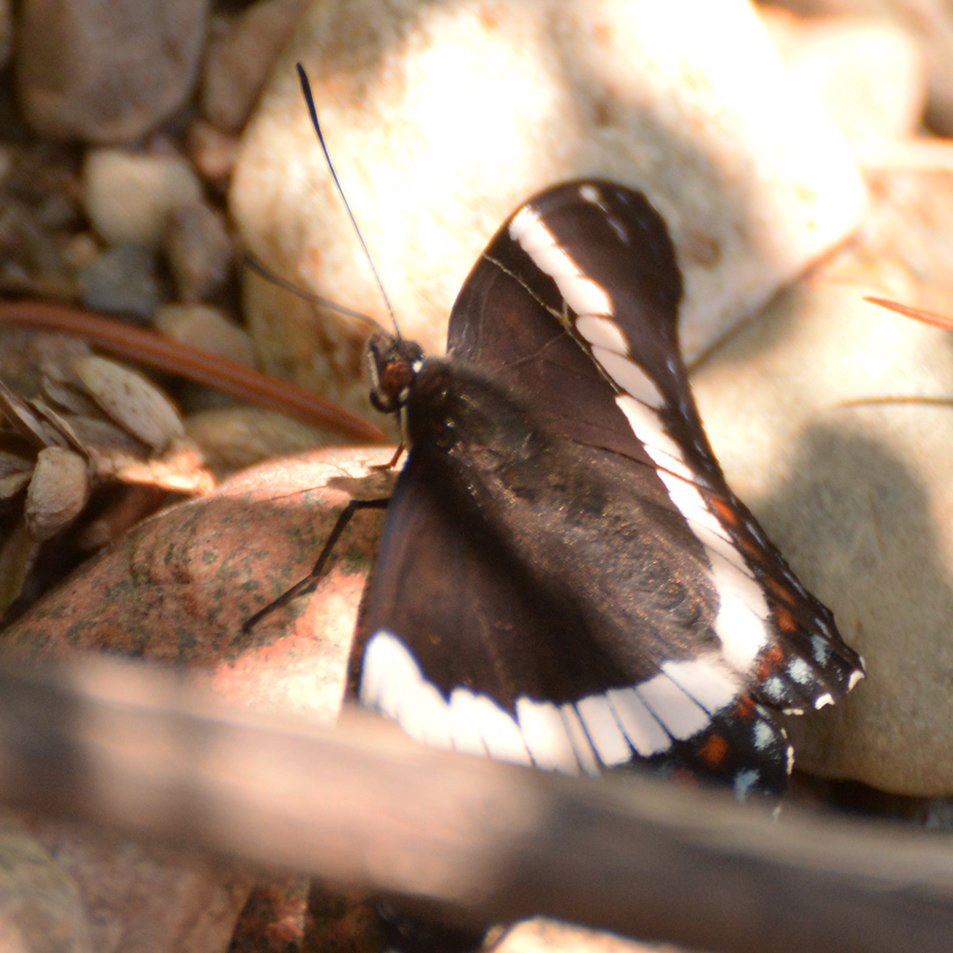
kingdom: Animalia
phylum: Arthropoda
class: Insecta
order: Lepidoptera
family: Nymphalidae
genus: Limenitis
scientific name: Limenitis arthemis
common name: Red-spotted Admiral
